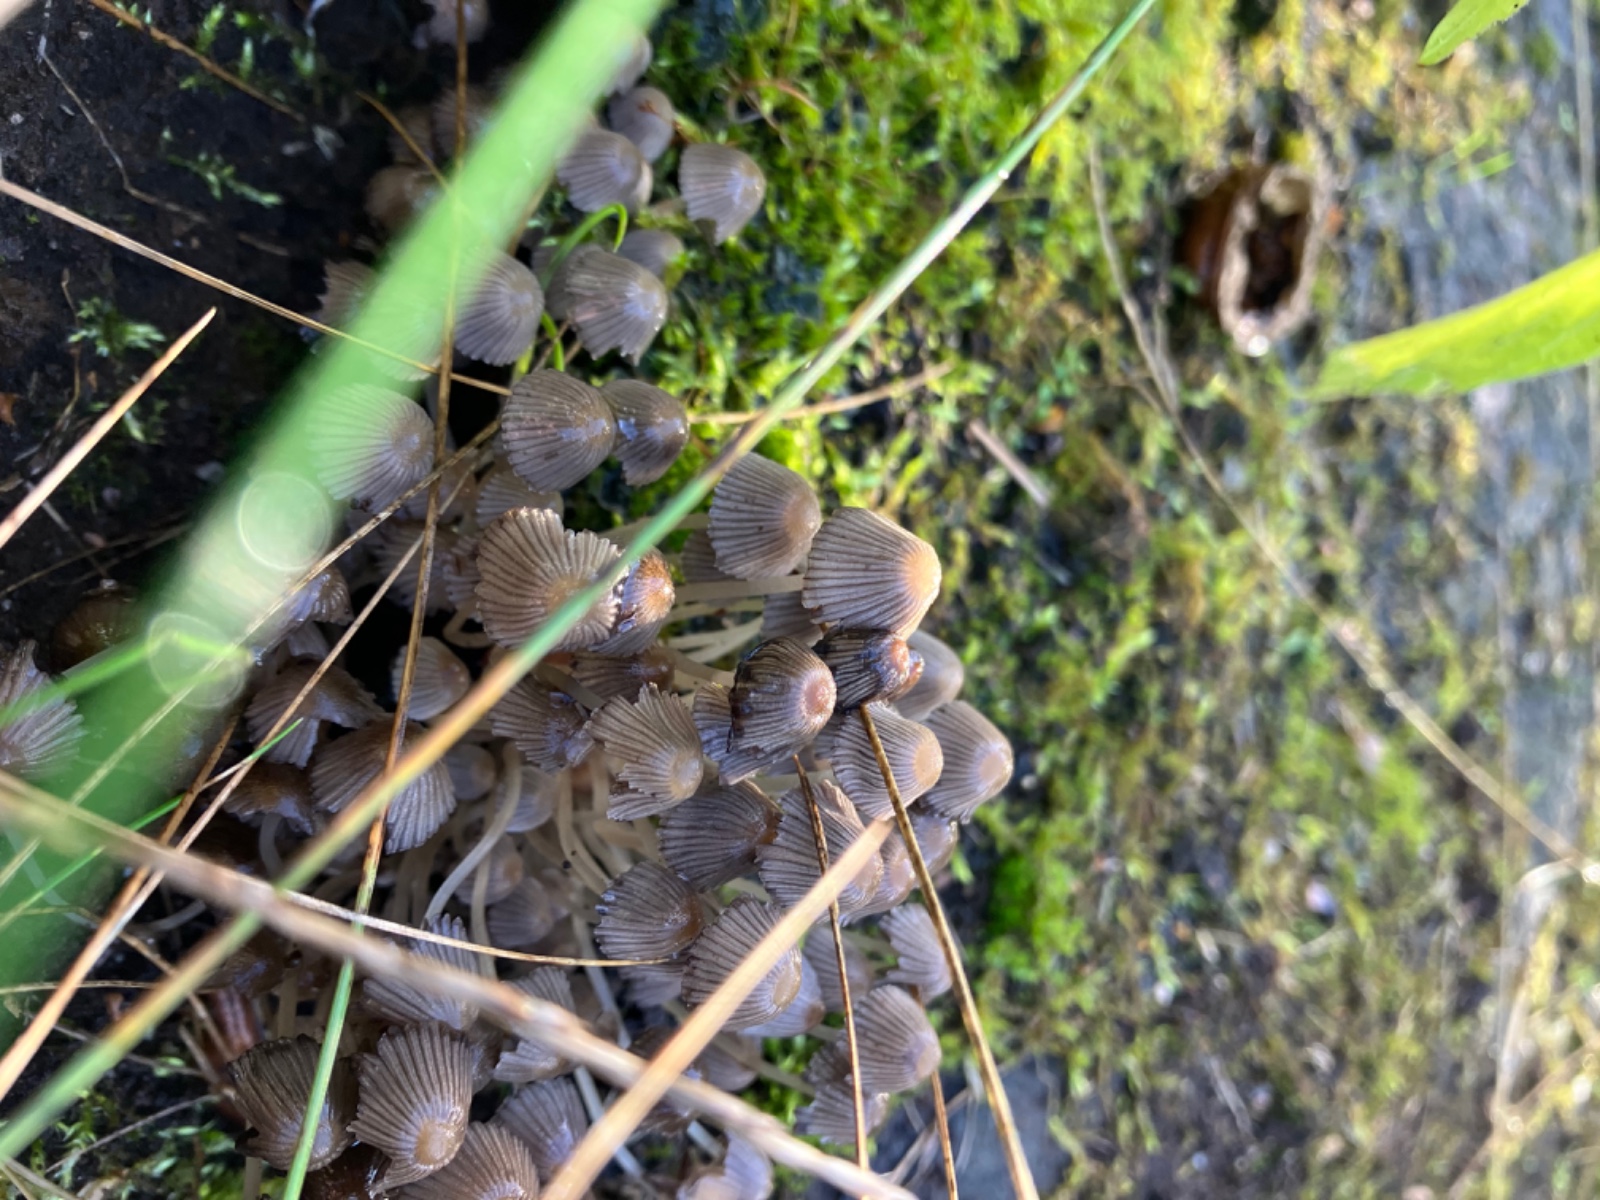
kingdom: Fungi
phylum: Basidiomycota
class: Agaricomycetes
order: Agaricales
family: Psathyrellaceae
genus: Coprinellus
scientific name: Coprinellus disseminatus
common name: bredsået blækhat
